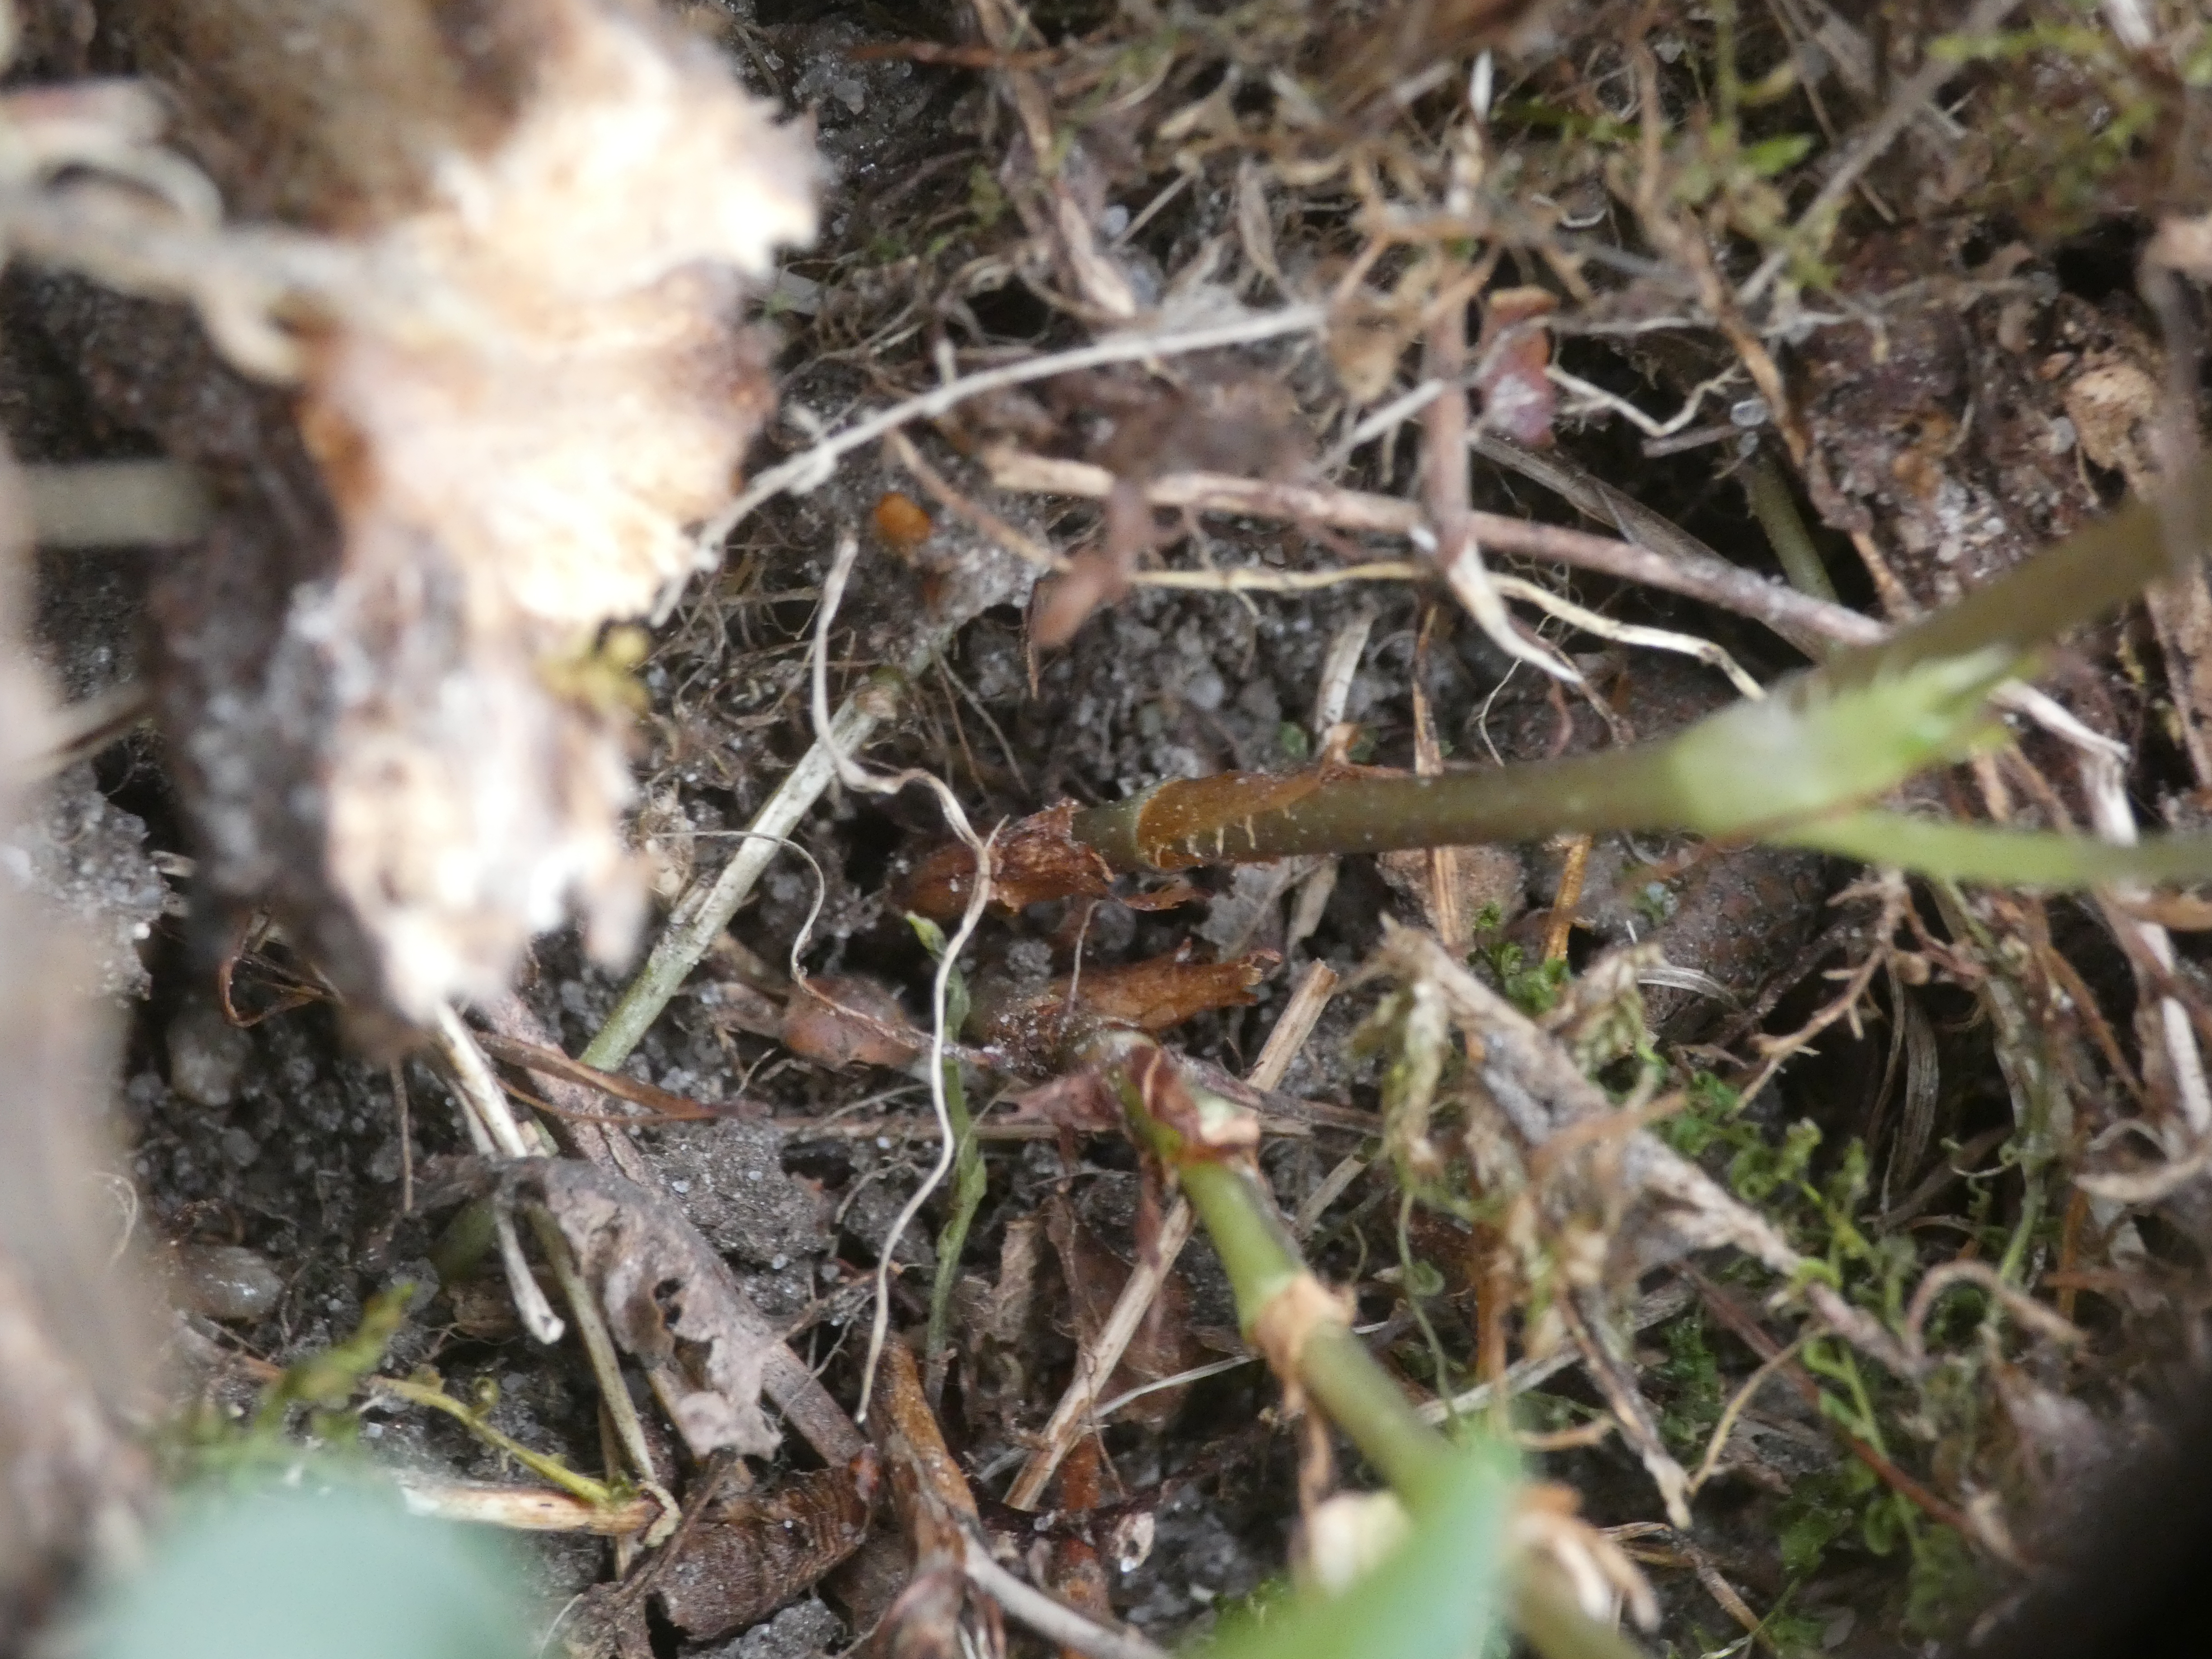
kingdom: Plantae
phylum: Tracheophyta
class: Magnoliopsida
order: Malpighiales
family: Violaceae
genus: Viola
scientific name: Viola riviniana
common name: Krat-viol
